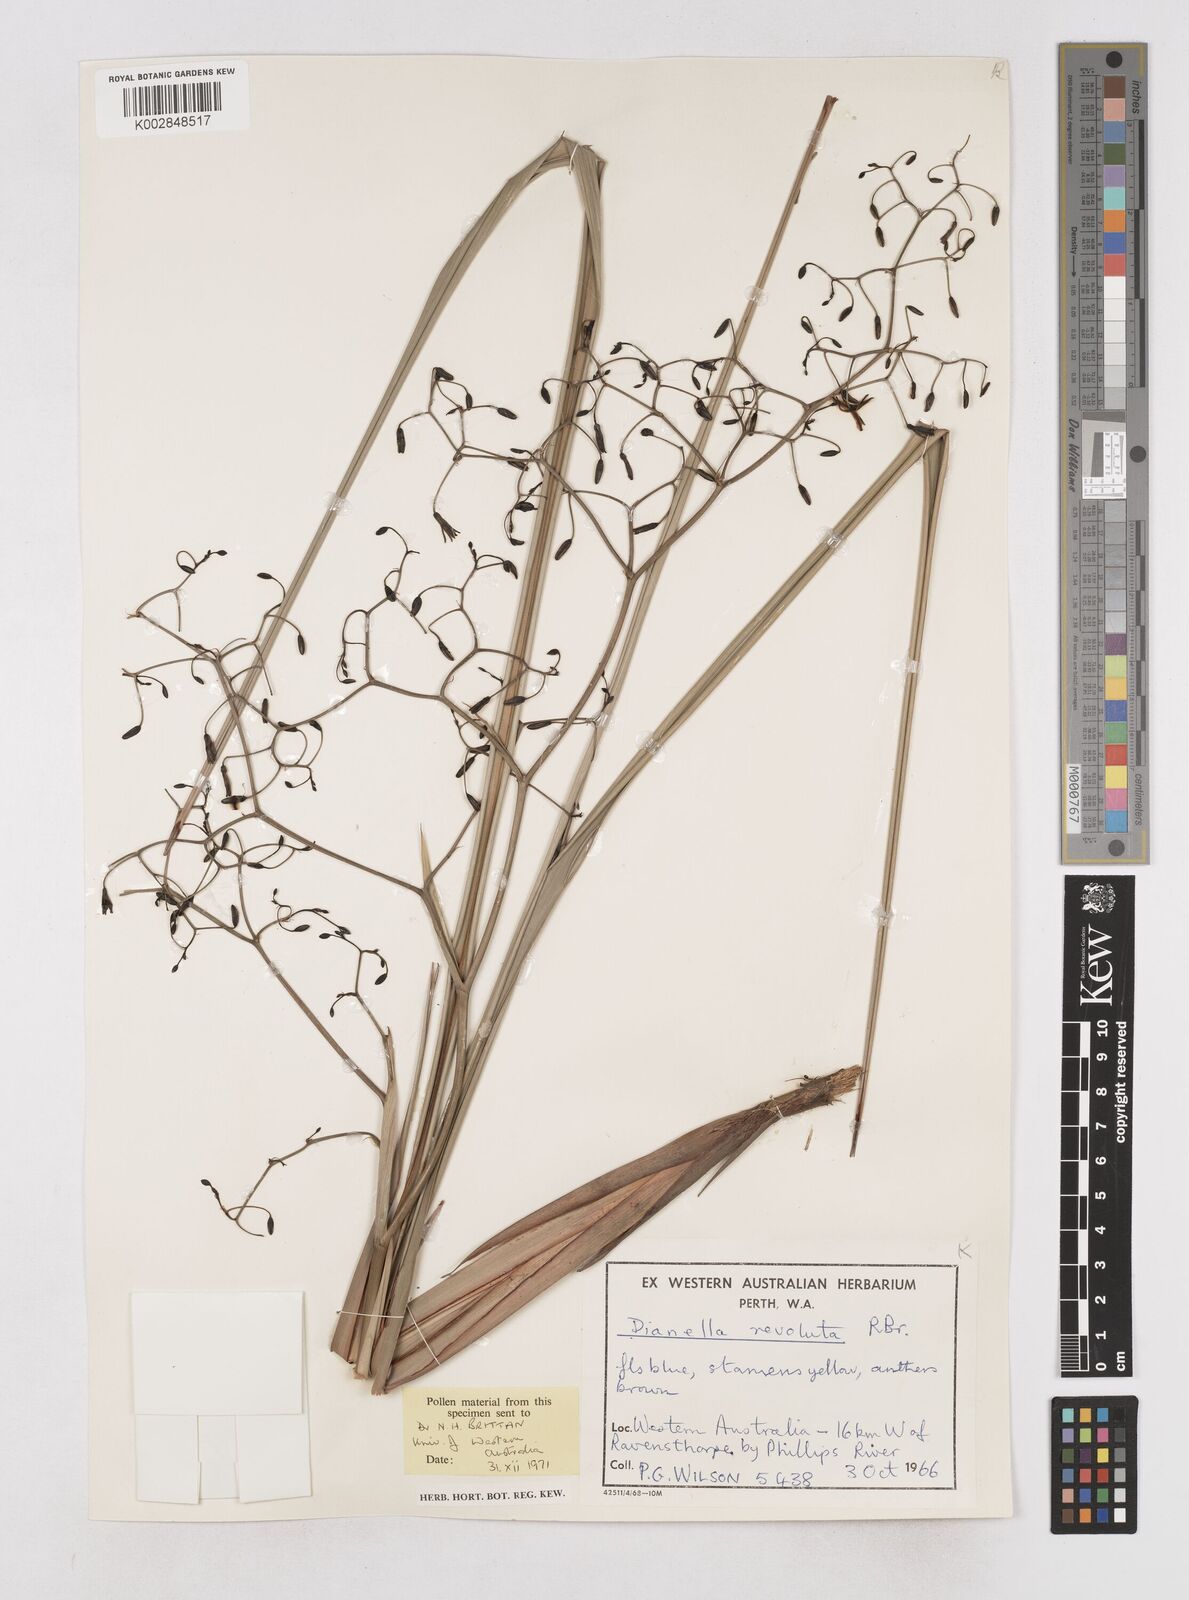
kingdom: Plantae
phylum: Tracheophyta
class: Liliopsida
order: Asparagales
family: Asphodelaceae
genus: Dianella
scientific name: Dianella revoluta
